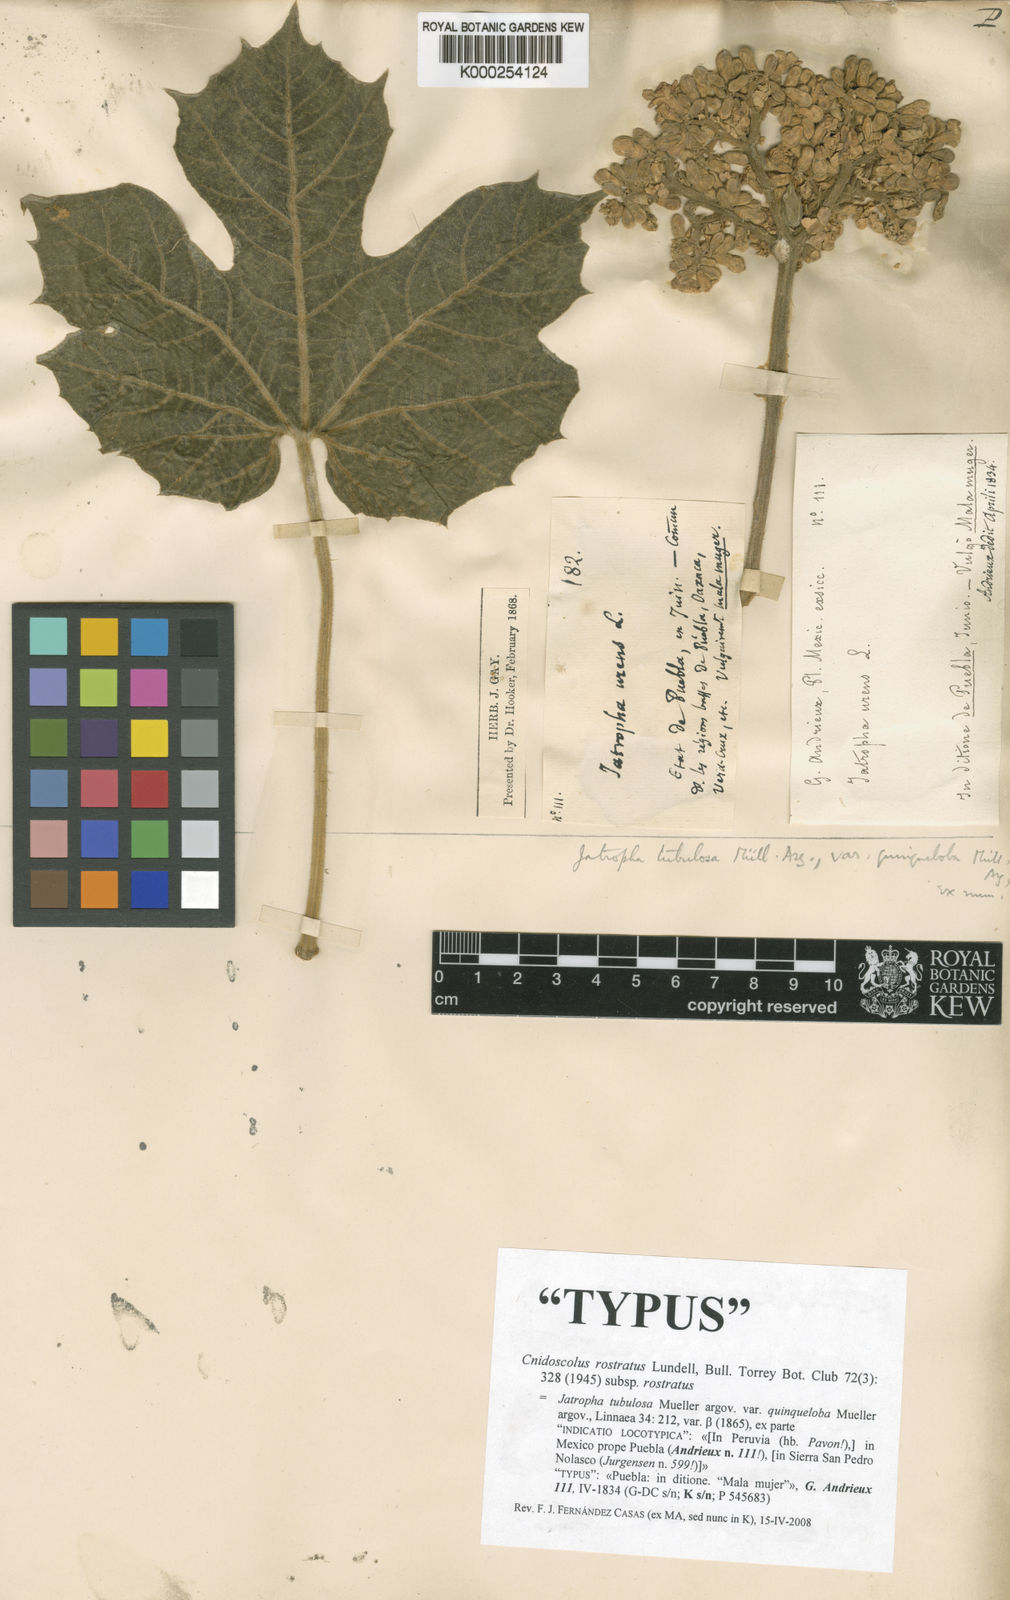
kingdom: Plantae
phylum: Tracheophyta
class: Magnoliopsida
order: Malpighiales
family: Euphorbiaceae
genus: Cnidoscolus
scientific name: Cnidoscolus
